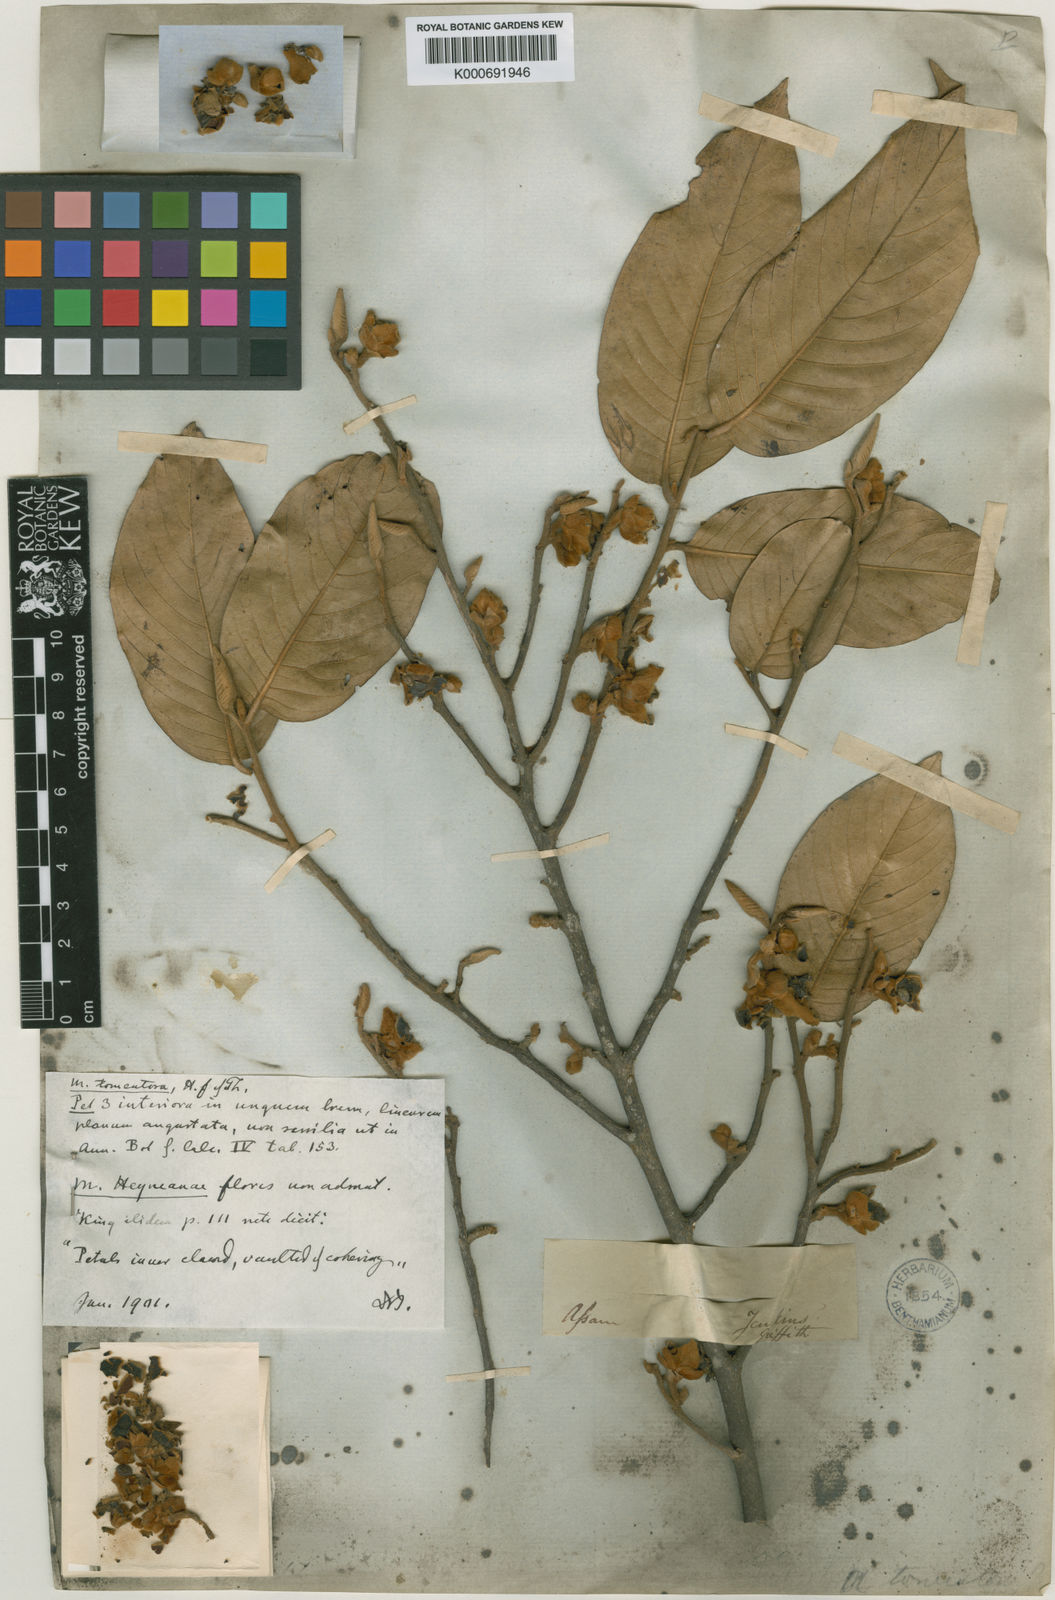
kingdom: Plantae
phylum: Tracheophyta
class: Magnoliopsida
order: Magnoliales
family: Annonaceae
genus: Mitrephora
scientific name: Mitrephora tomentosa
